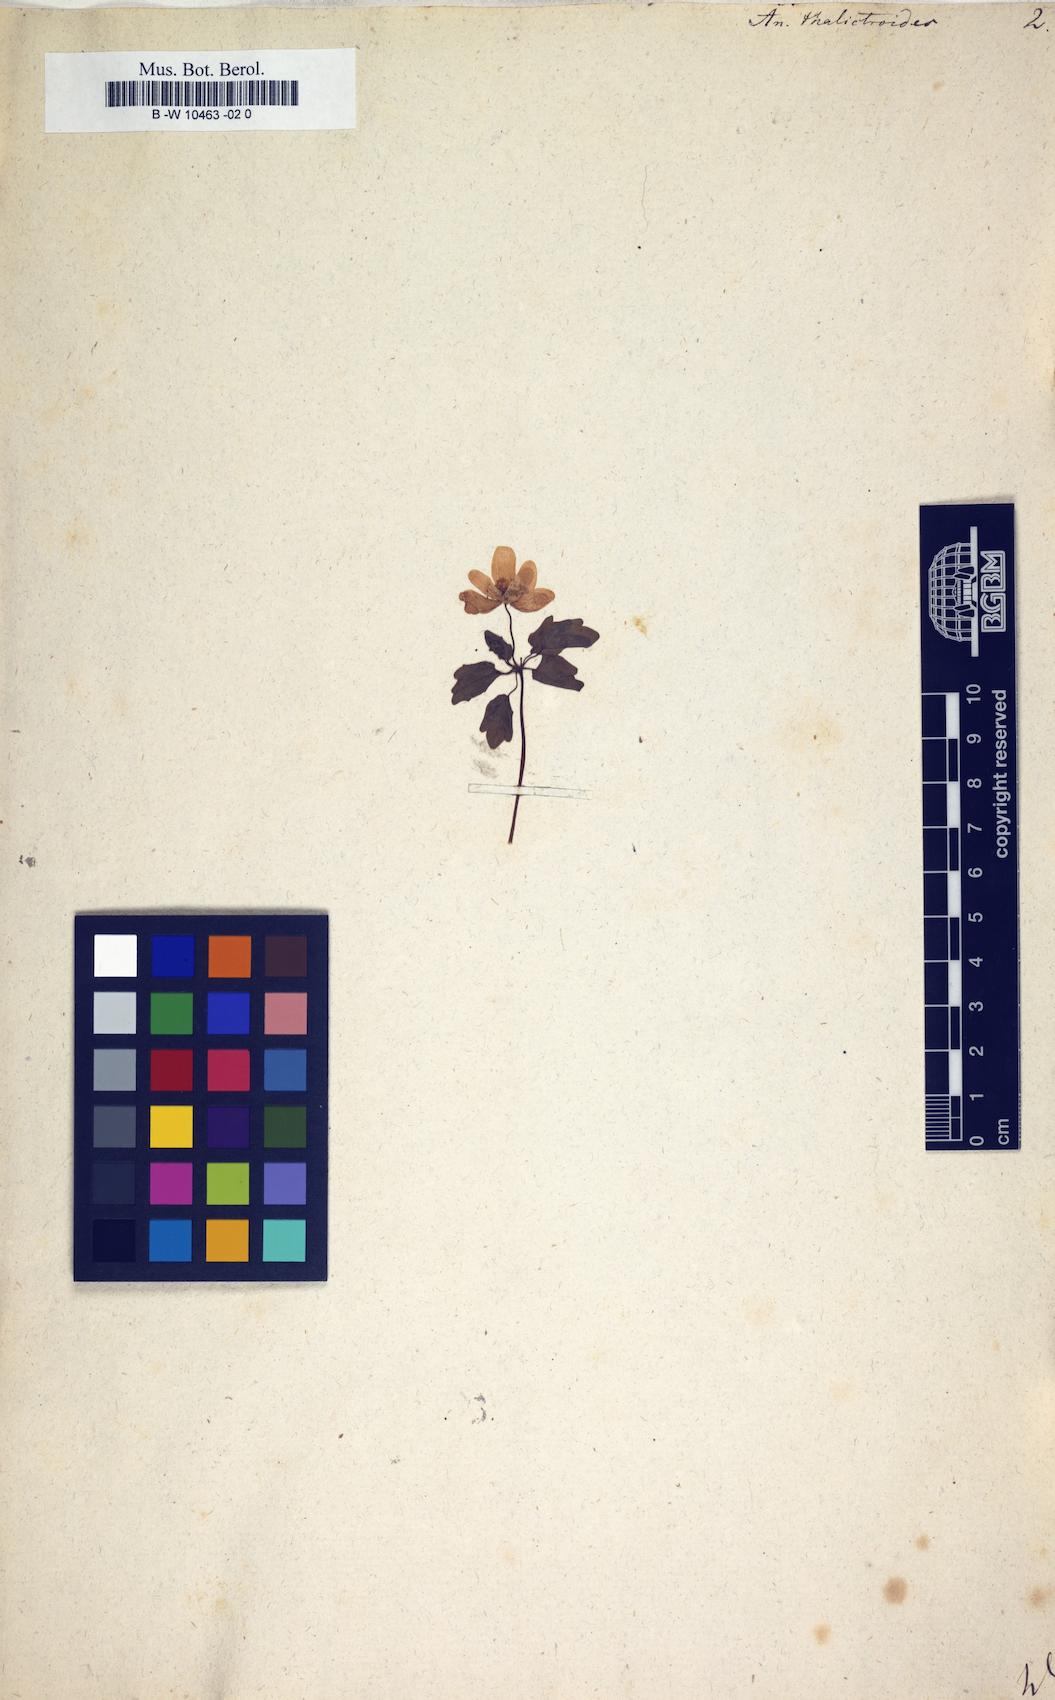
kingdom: Plantae
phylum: Tracheophyta
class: Magnoliopsida
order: Ranunculales
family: Ranunculaceae
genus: Thalictrum
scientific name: Thalictrum thalictroides
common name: Rue-anemone
